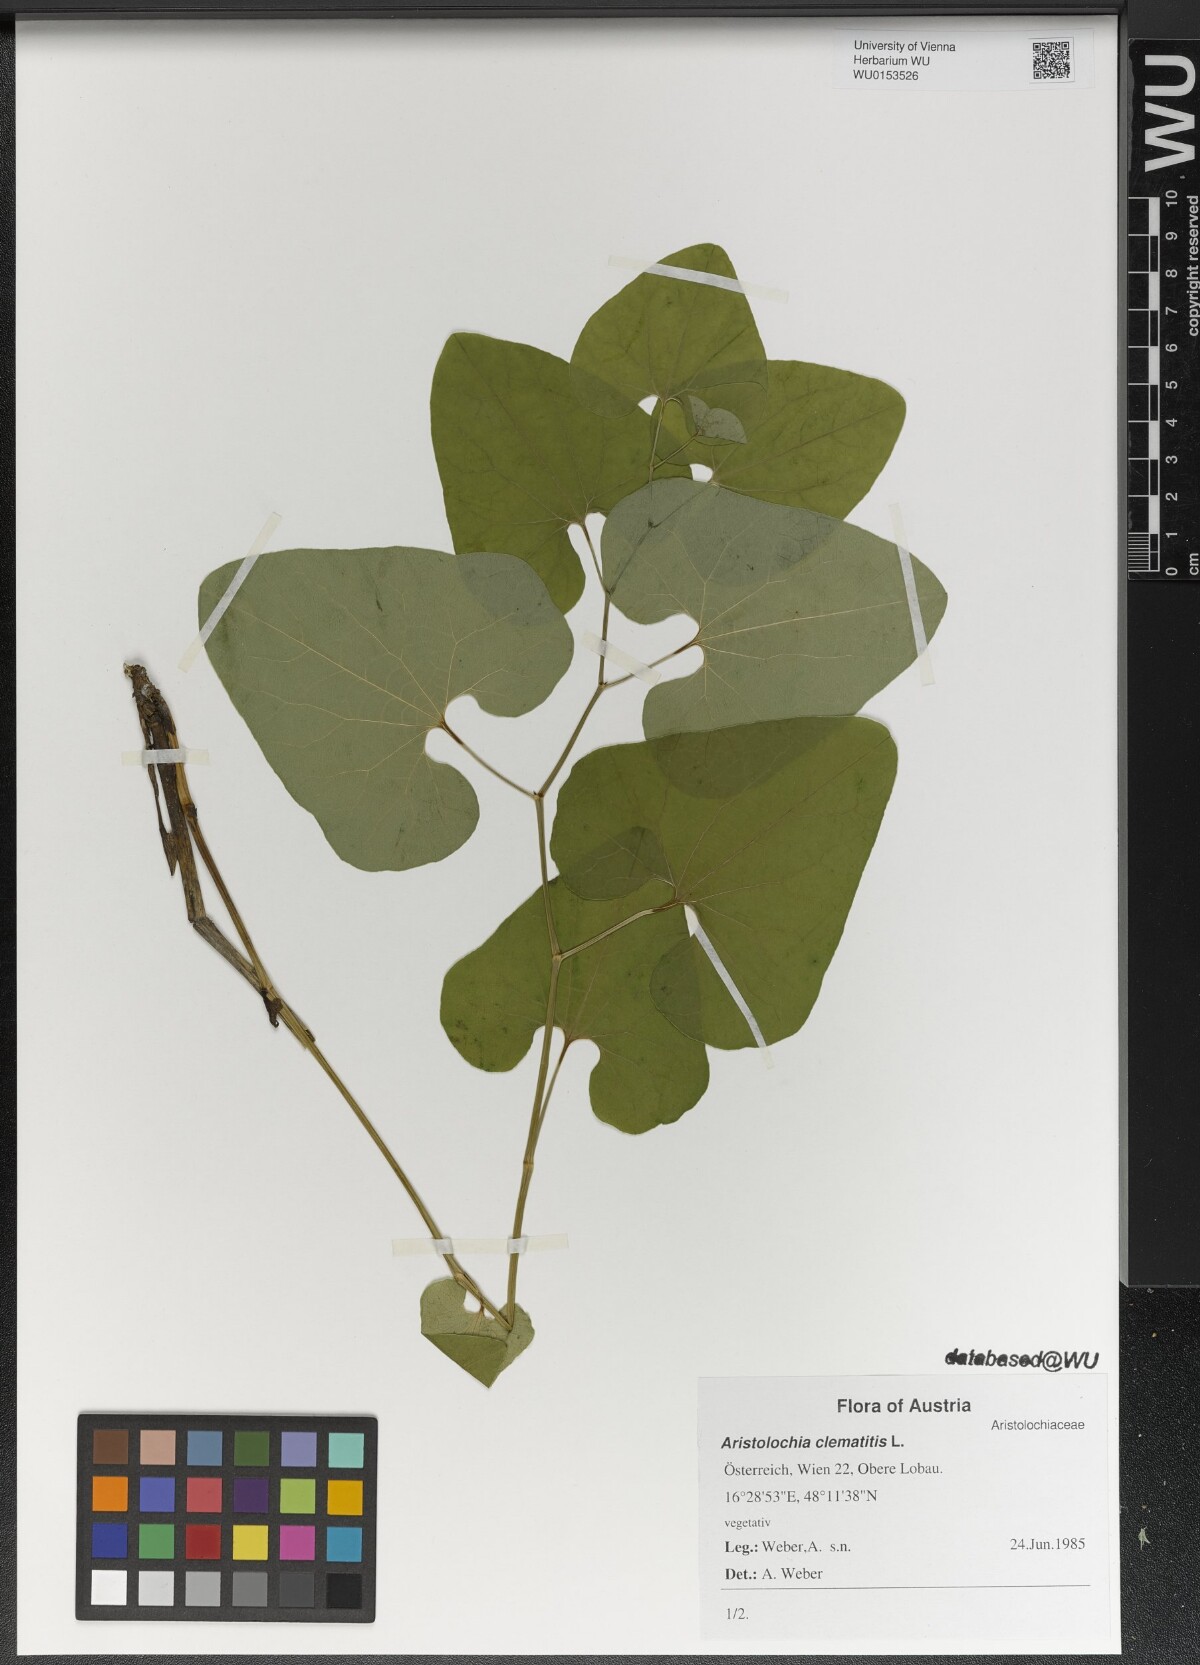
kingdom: Plantae
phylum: Tracheophyta
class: Magnoliopsida
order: Piperales
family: Aristolochiaceae
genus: Aristolochia
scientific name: Aristolochia clematitis
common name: Birthwort
